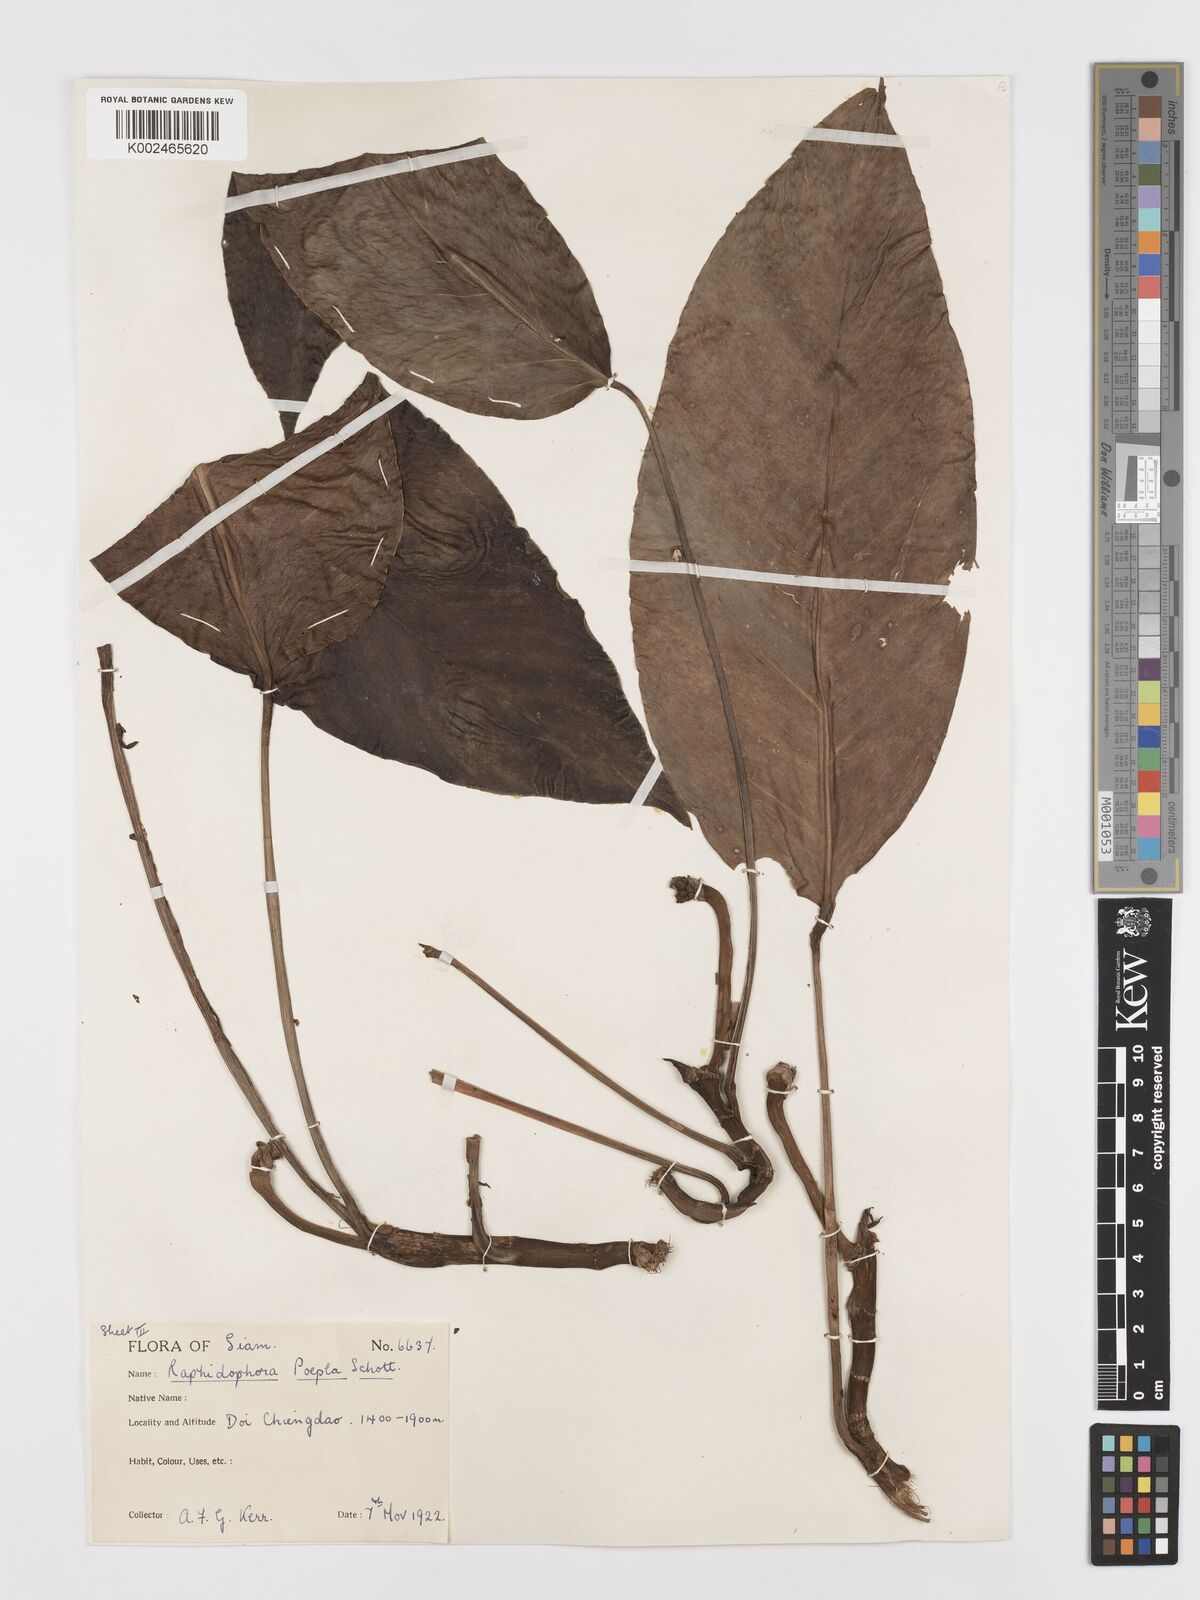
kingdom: Plantae
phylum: Tracheophyta
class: Liliopsida
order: Alismatales
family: Araceae
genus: Rhaphidophora
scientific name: Rhaphidophora peepla
